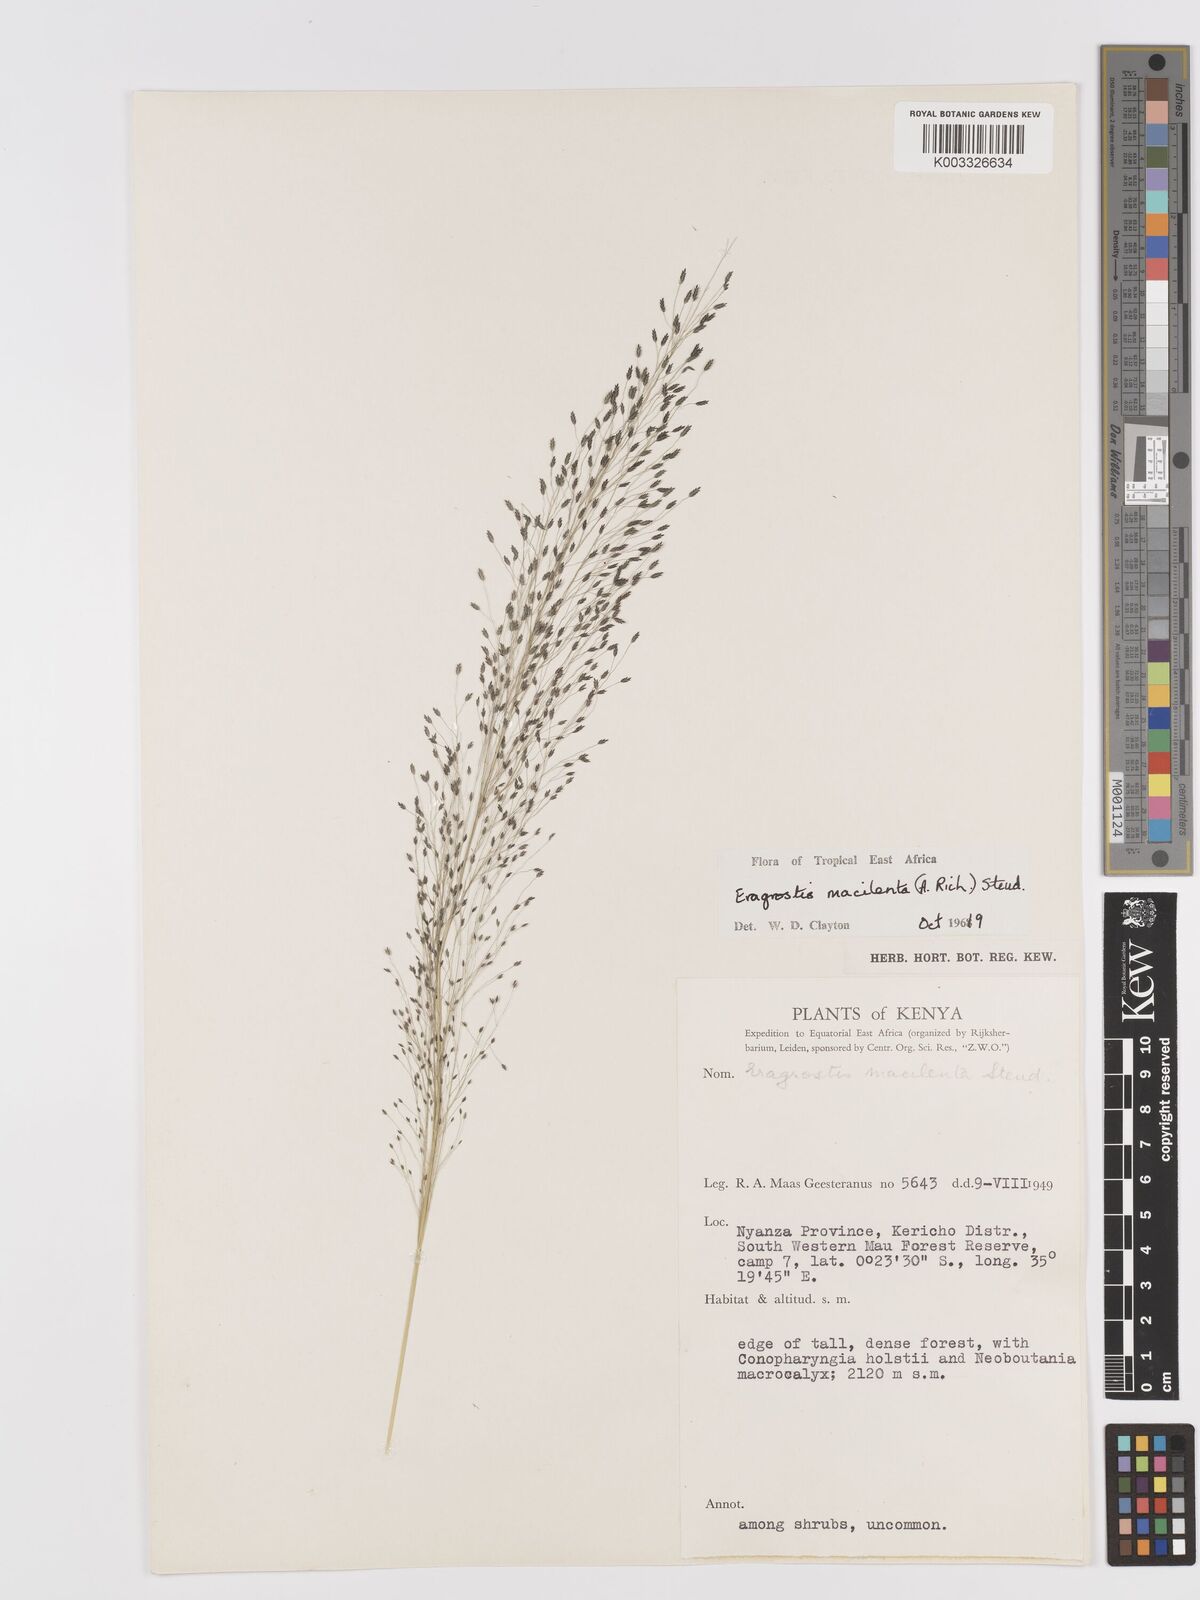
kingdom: Plantae
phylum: Tracheophyta
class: Liliopsida
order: Poales
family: Poaceae
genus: Eragrostis
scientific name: Eragrostis macilenta
